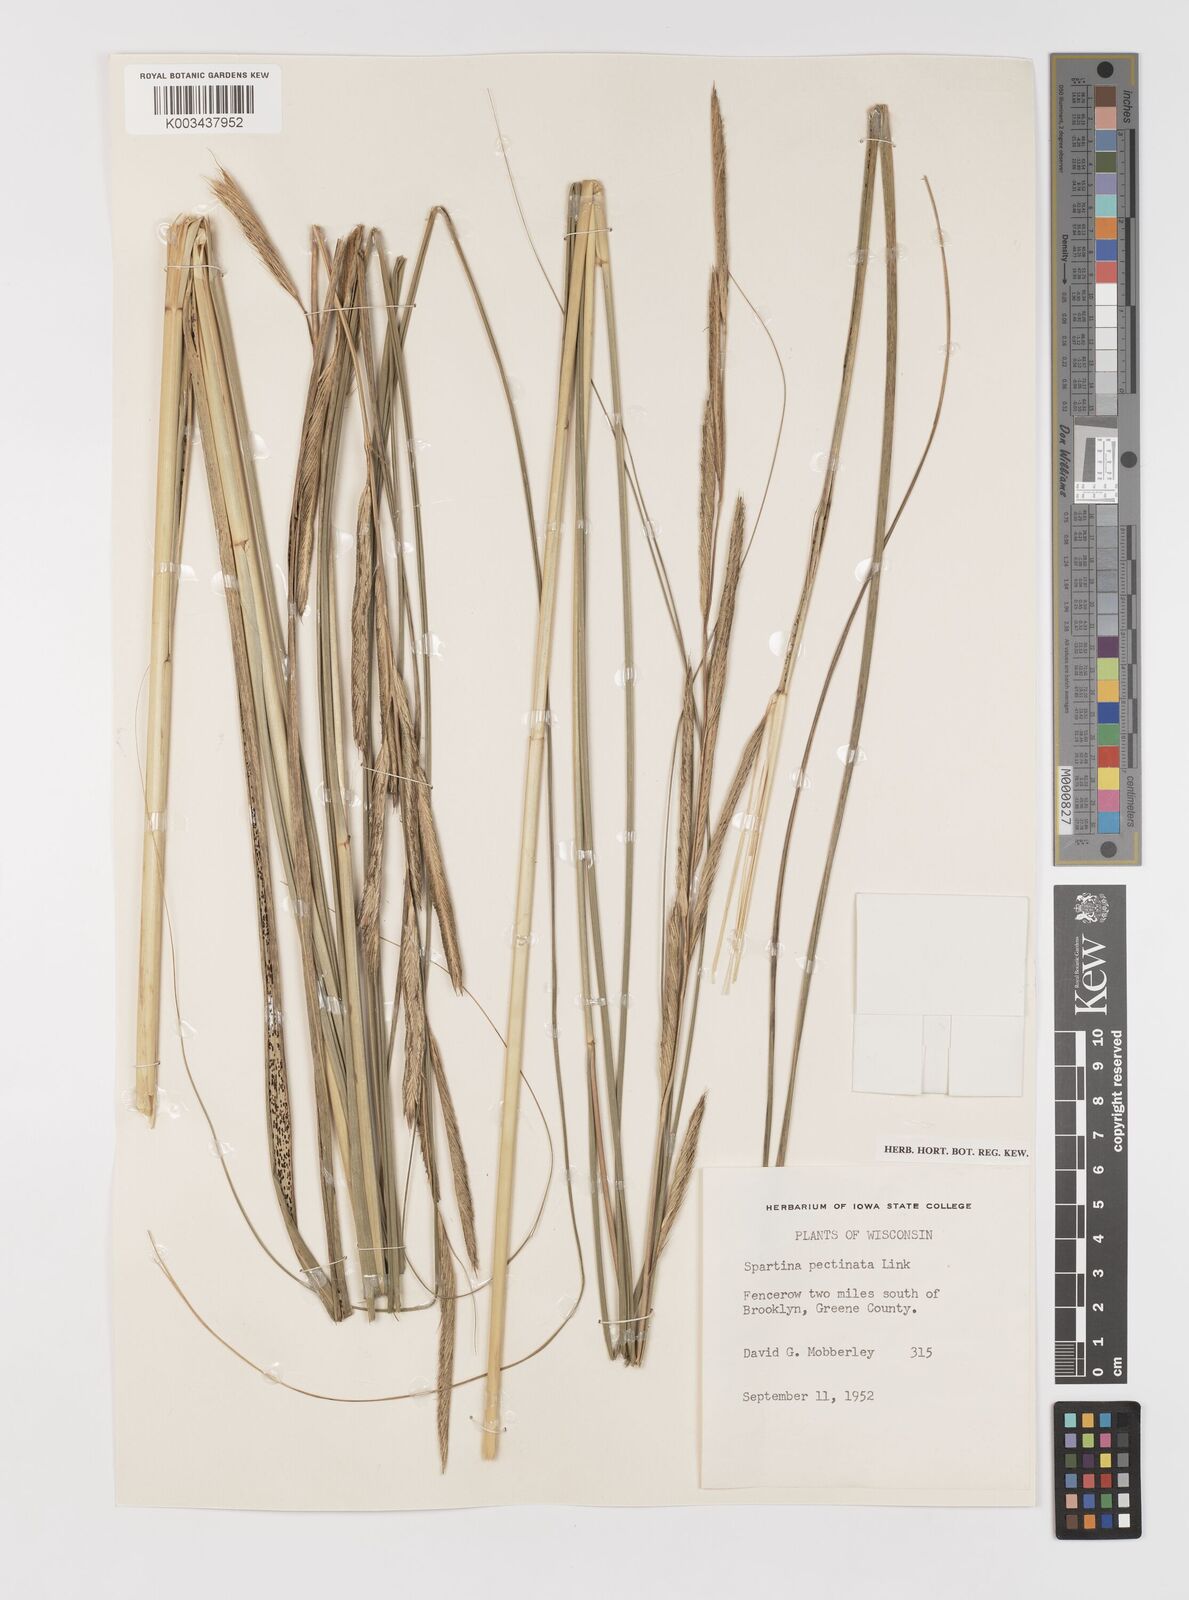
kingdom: Plantae
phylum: Tracheophyta
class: Liliopsida
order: Poales
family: Poaceae
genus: Sporobolus
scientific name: Sporobolus michauxianus
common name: Freshwater cordgrass
